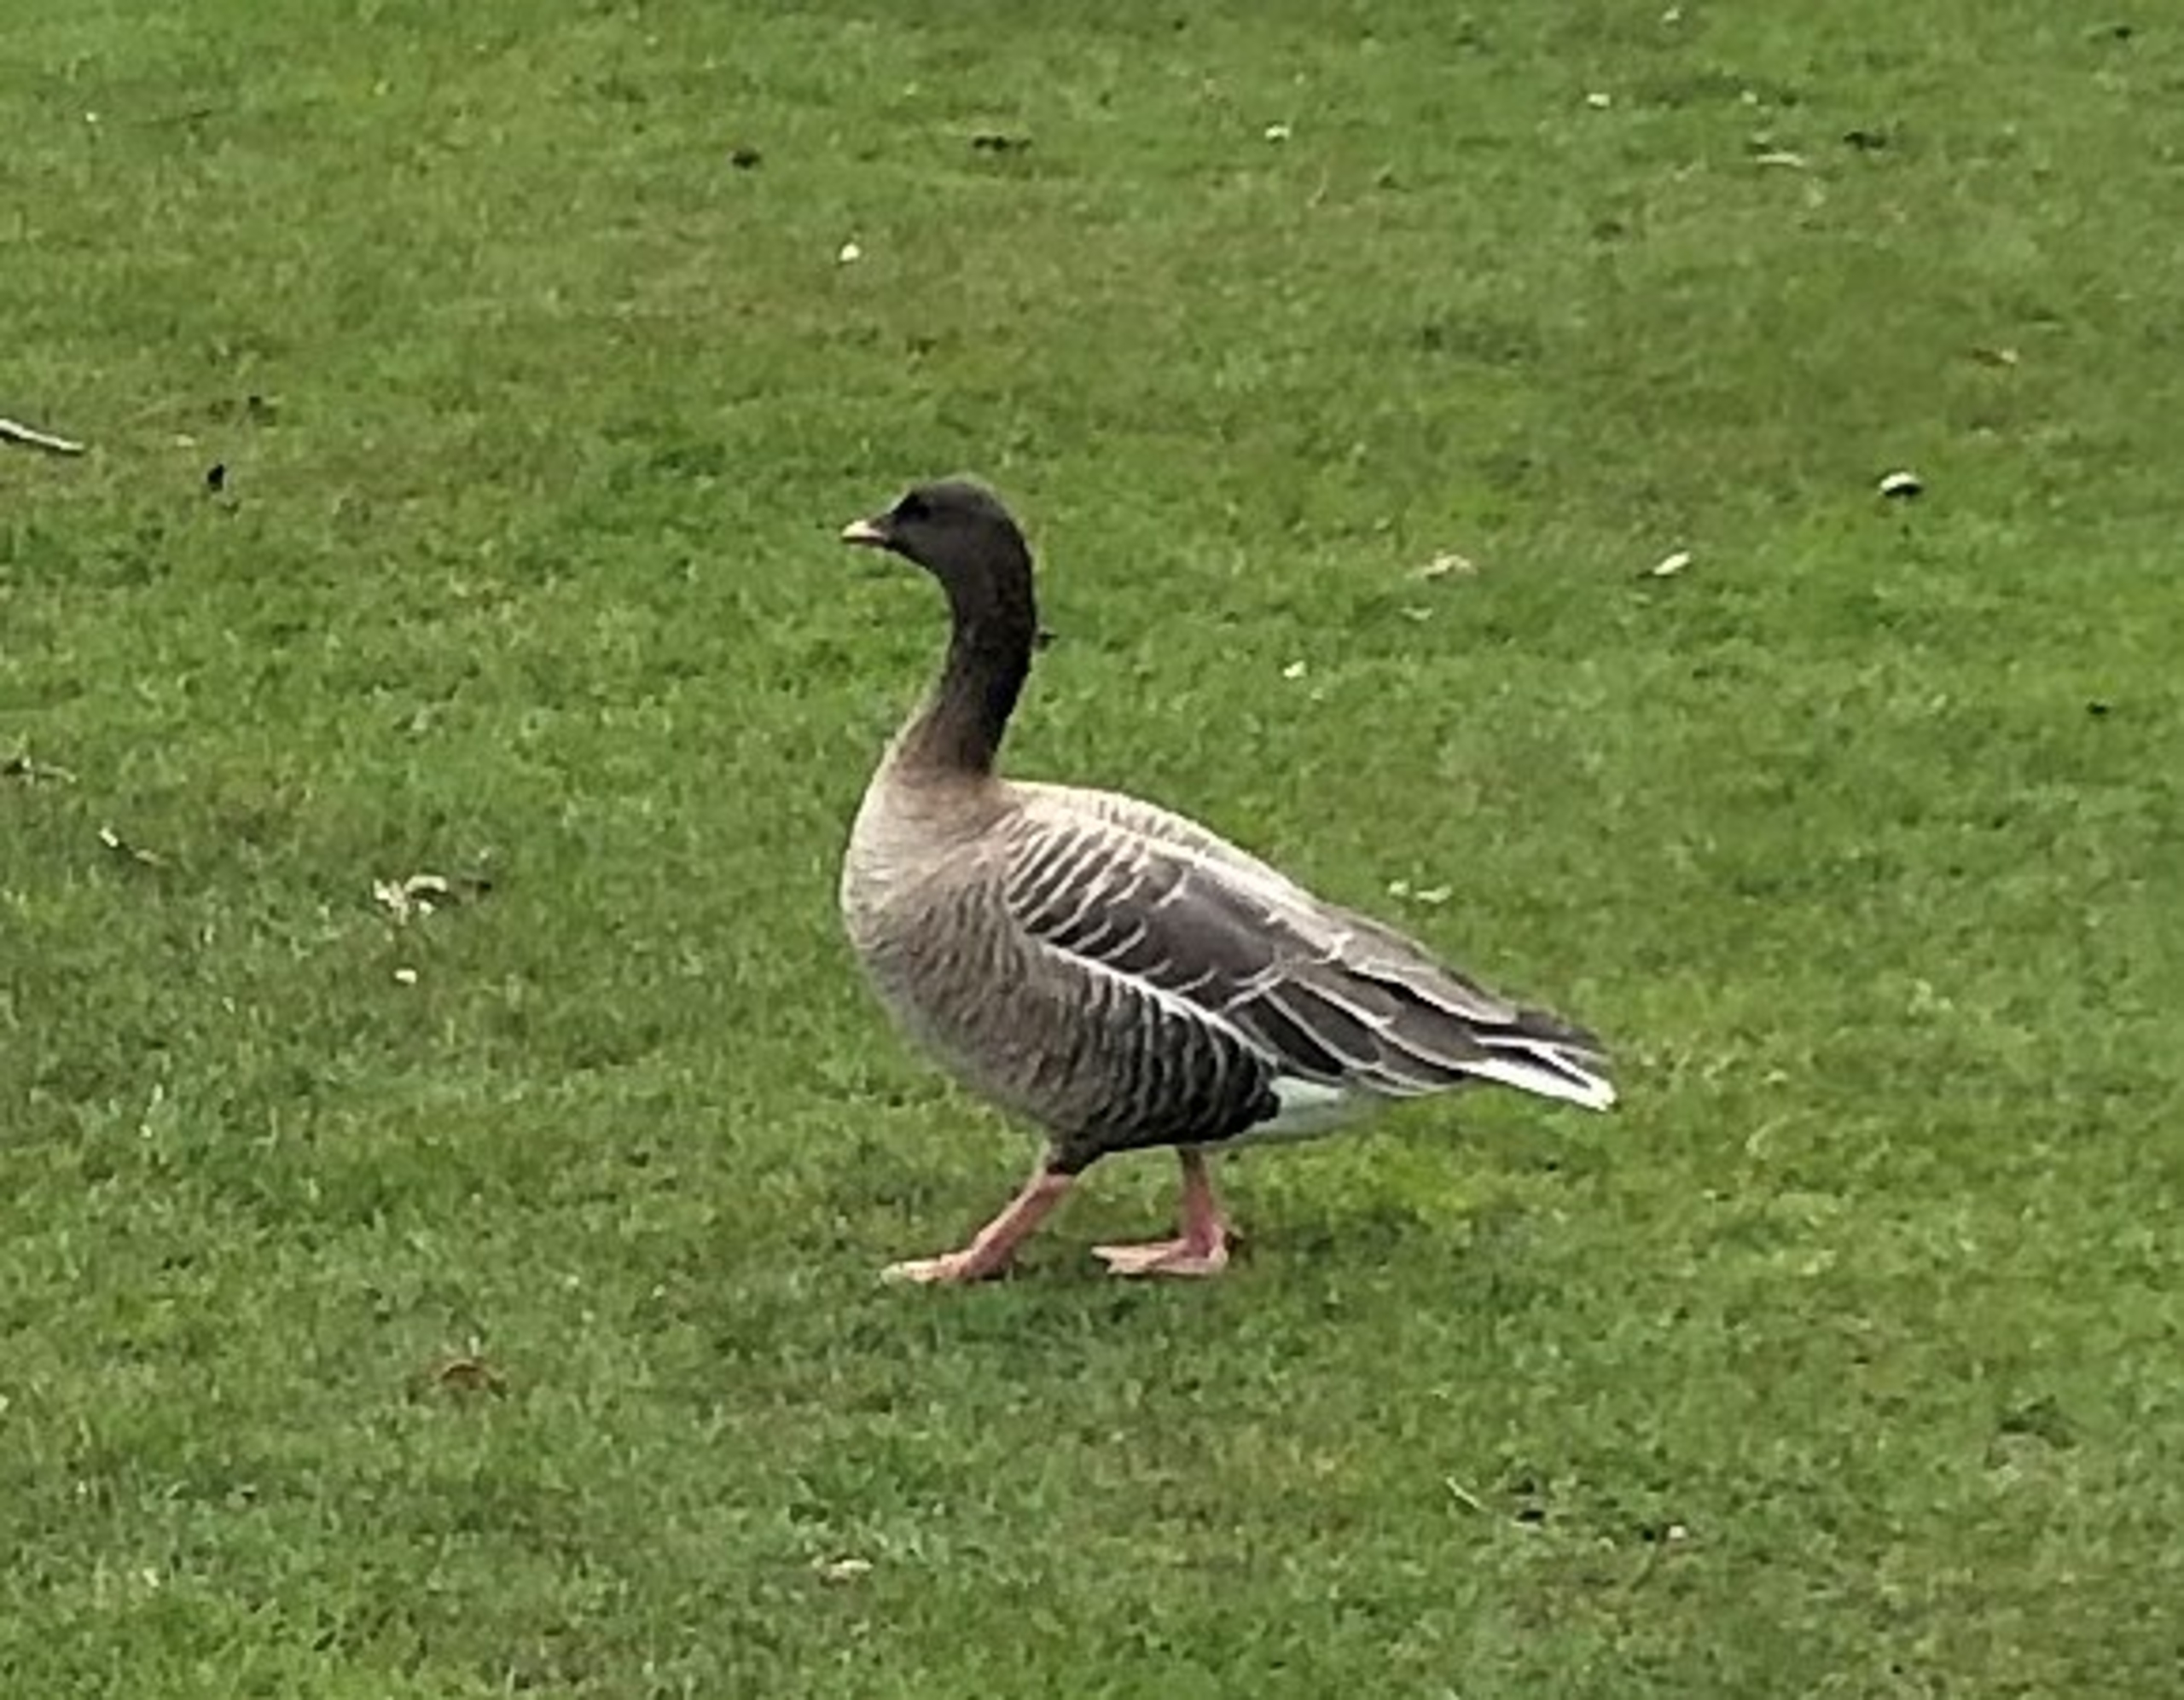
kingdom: Animalia
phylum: Chordata
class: Aves
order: Anseriformes
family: Anatidae
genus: Anser
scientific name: Anser brachyrhynchus
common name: Kortnæbbet gås
